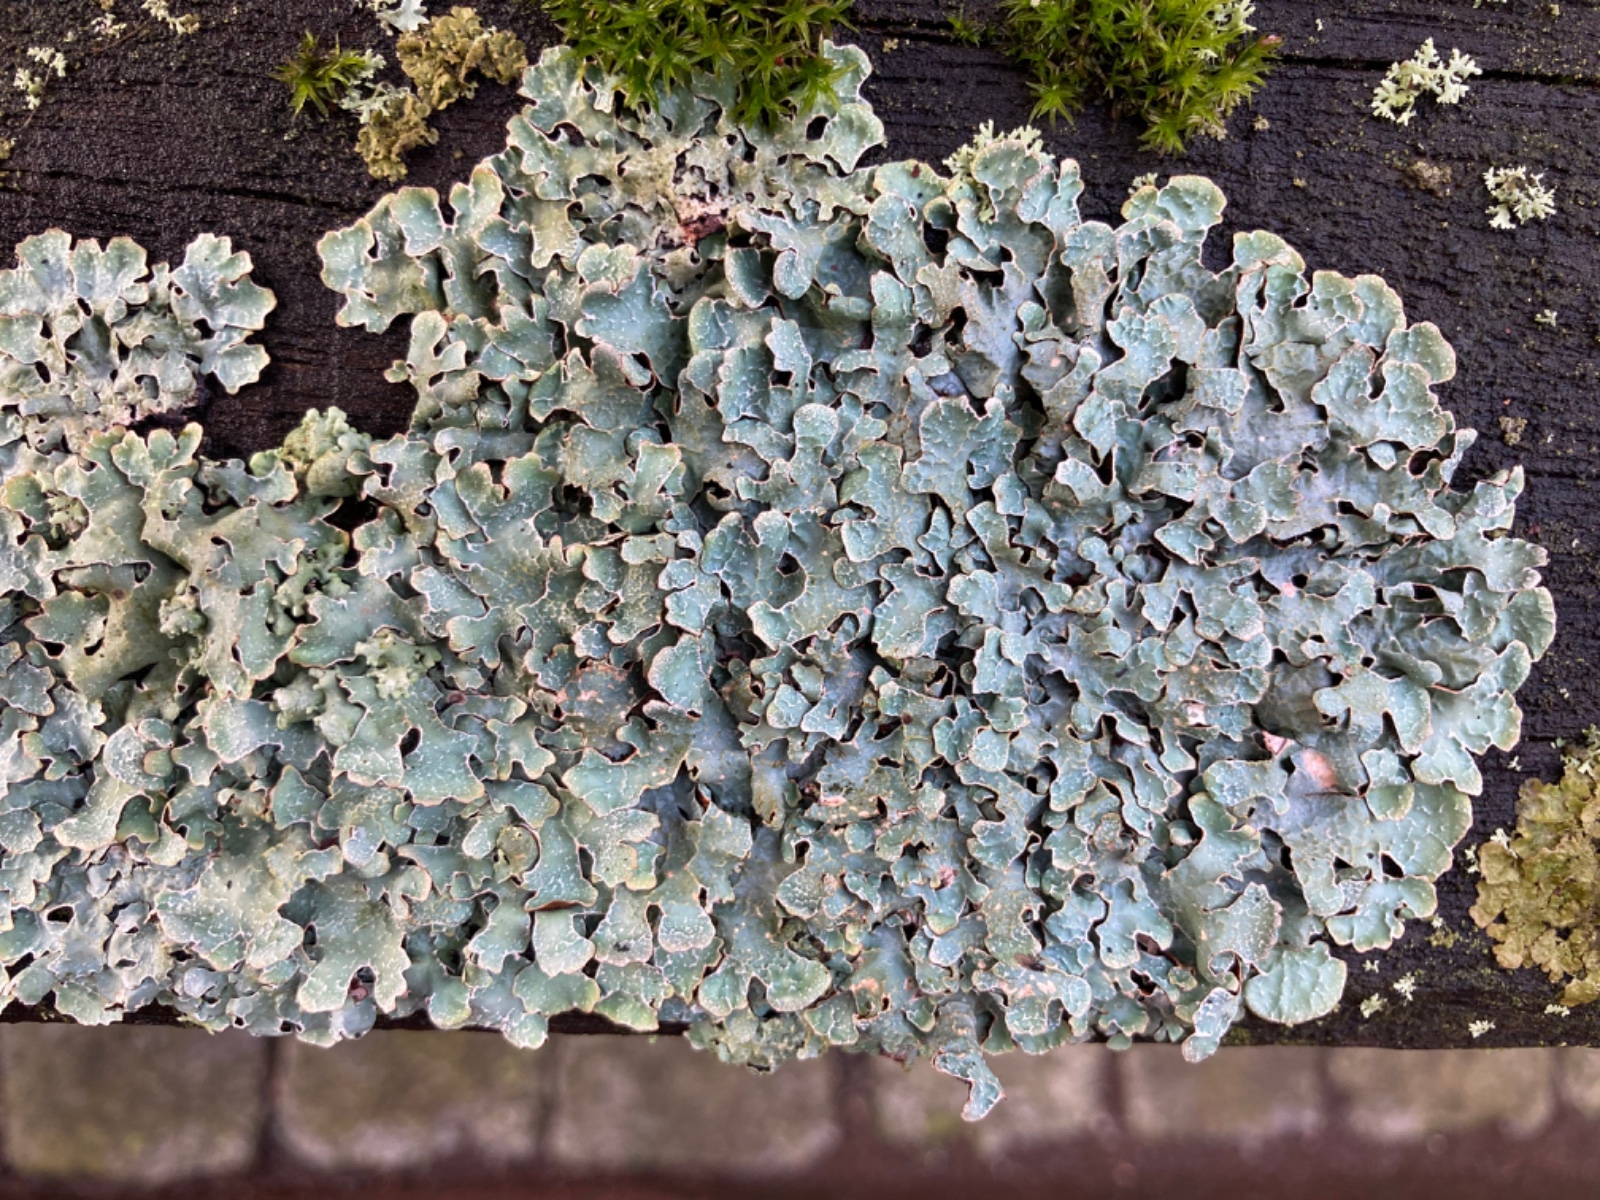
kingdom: Fungi
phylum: Ascomycota
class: Lecanoromycetes
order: Lecanorales
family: Parmeliaceae
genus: Parmelia
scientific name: Parmelia sulcata
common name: rynket skållav
